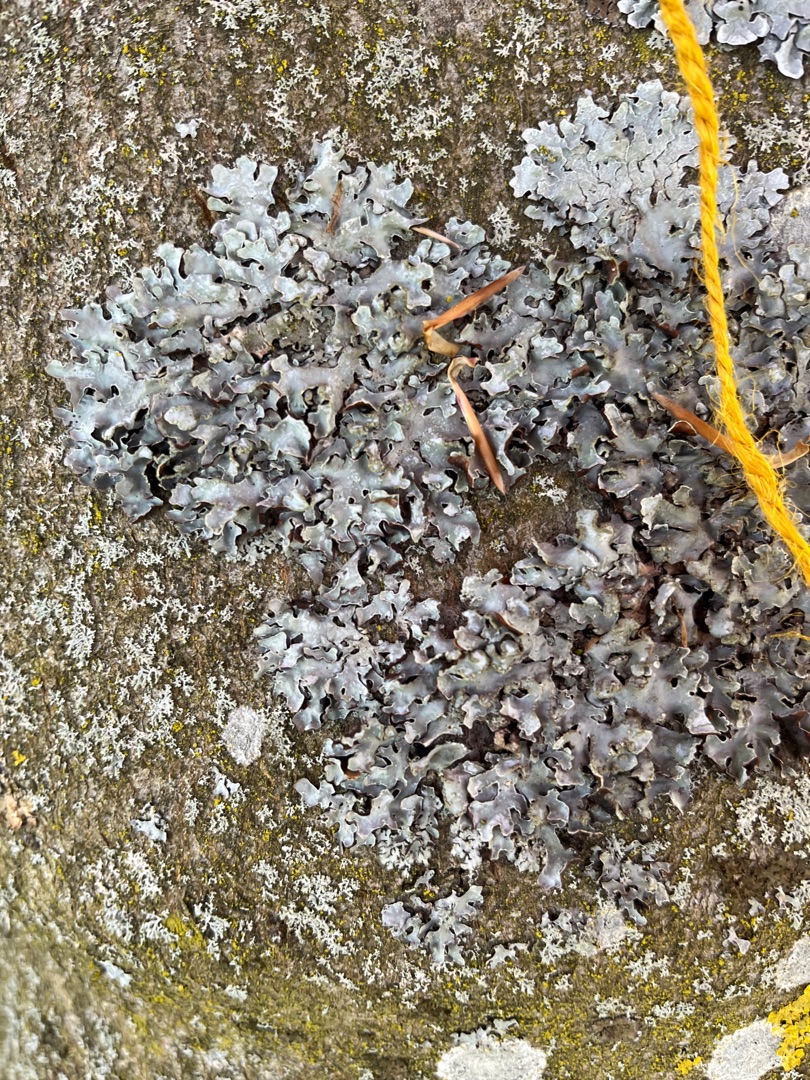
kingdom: Fungi
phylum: Ascomycota
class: Lecanoromycetes
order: Lecanorales
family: Parmeliaceae
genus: Parmelia
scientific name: Parmelia sulcata
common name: Rynket skållav
